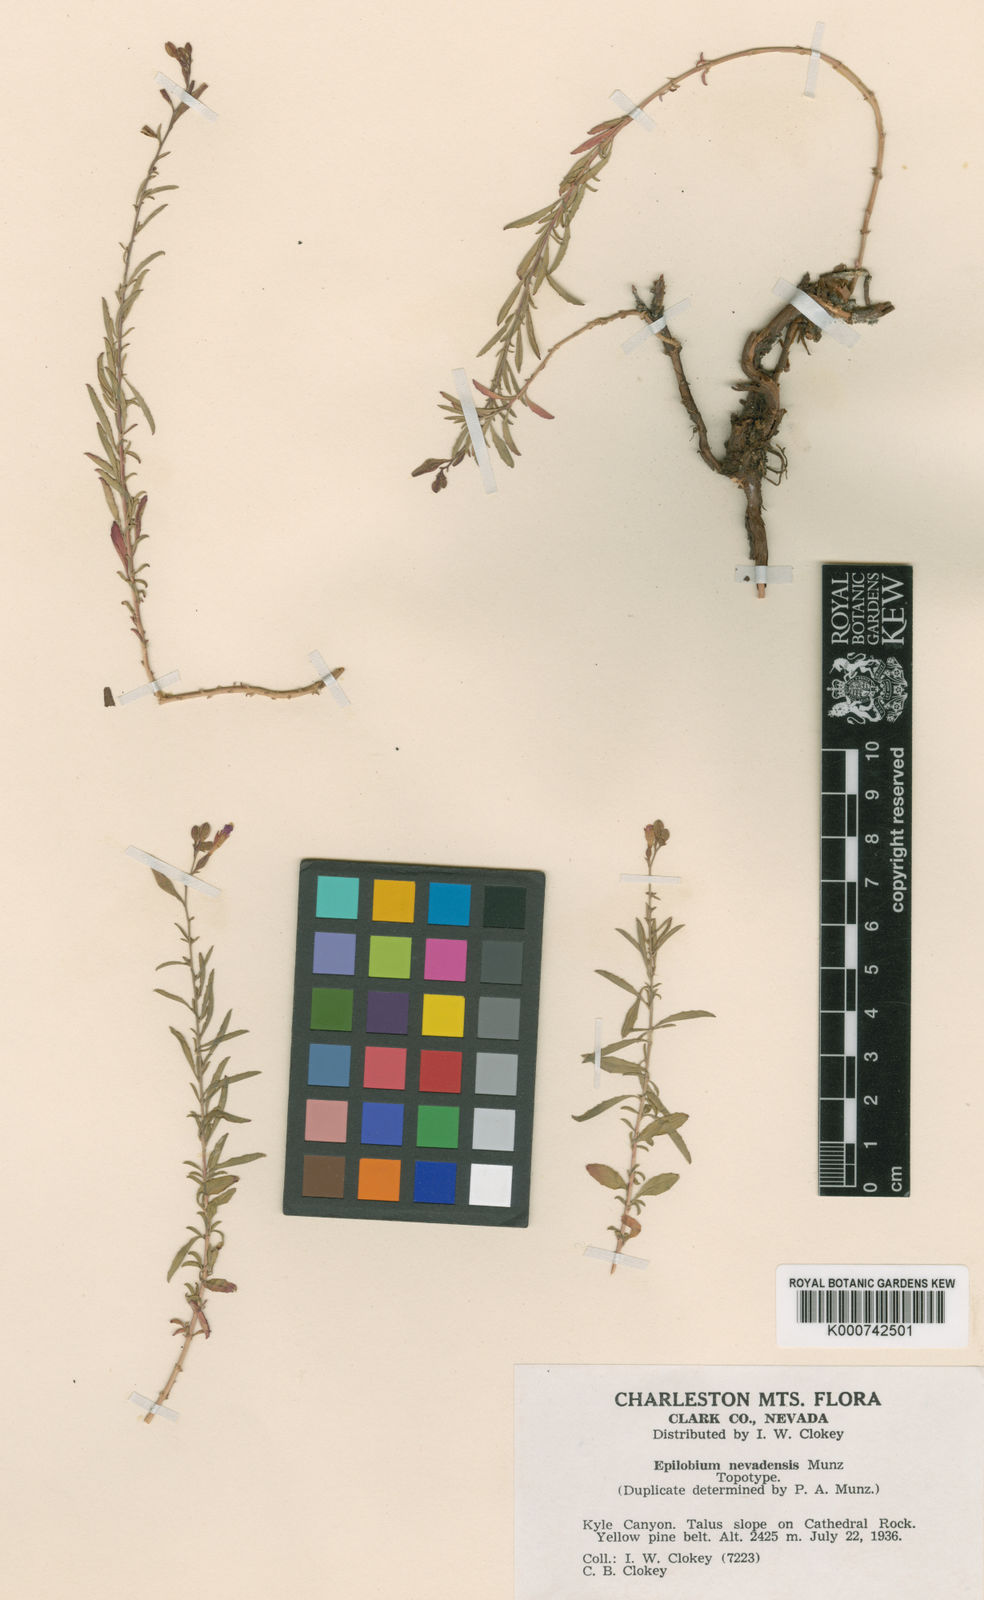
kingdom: Plantae
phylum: Tracheophyta
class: Magnoliopsida
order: Myrtales
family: Onagraceae
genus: Epilobium
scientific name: Epilobium nevadense
